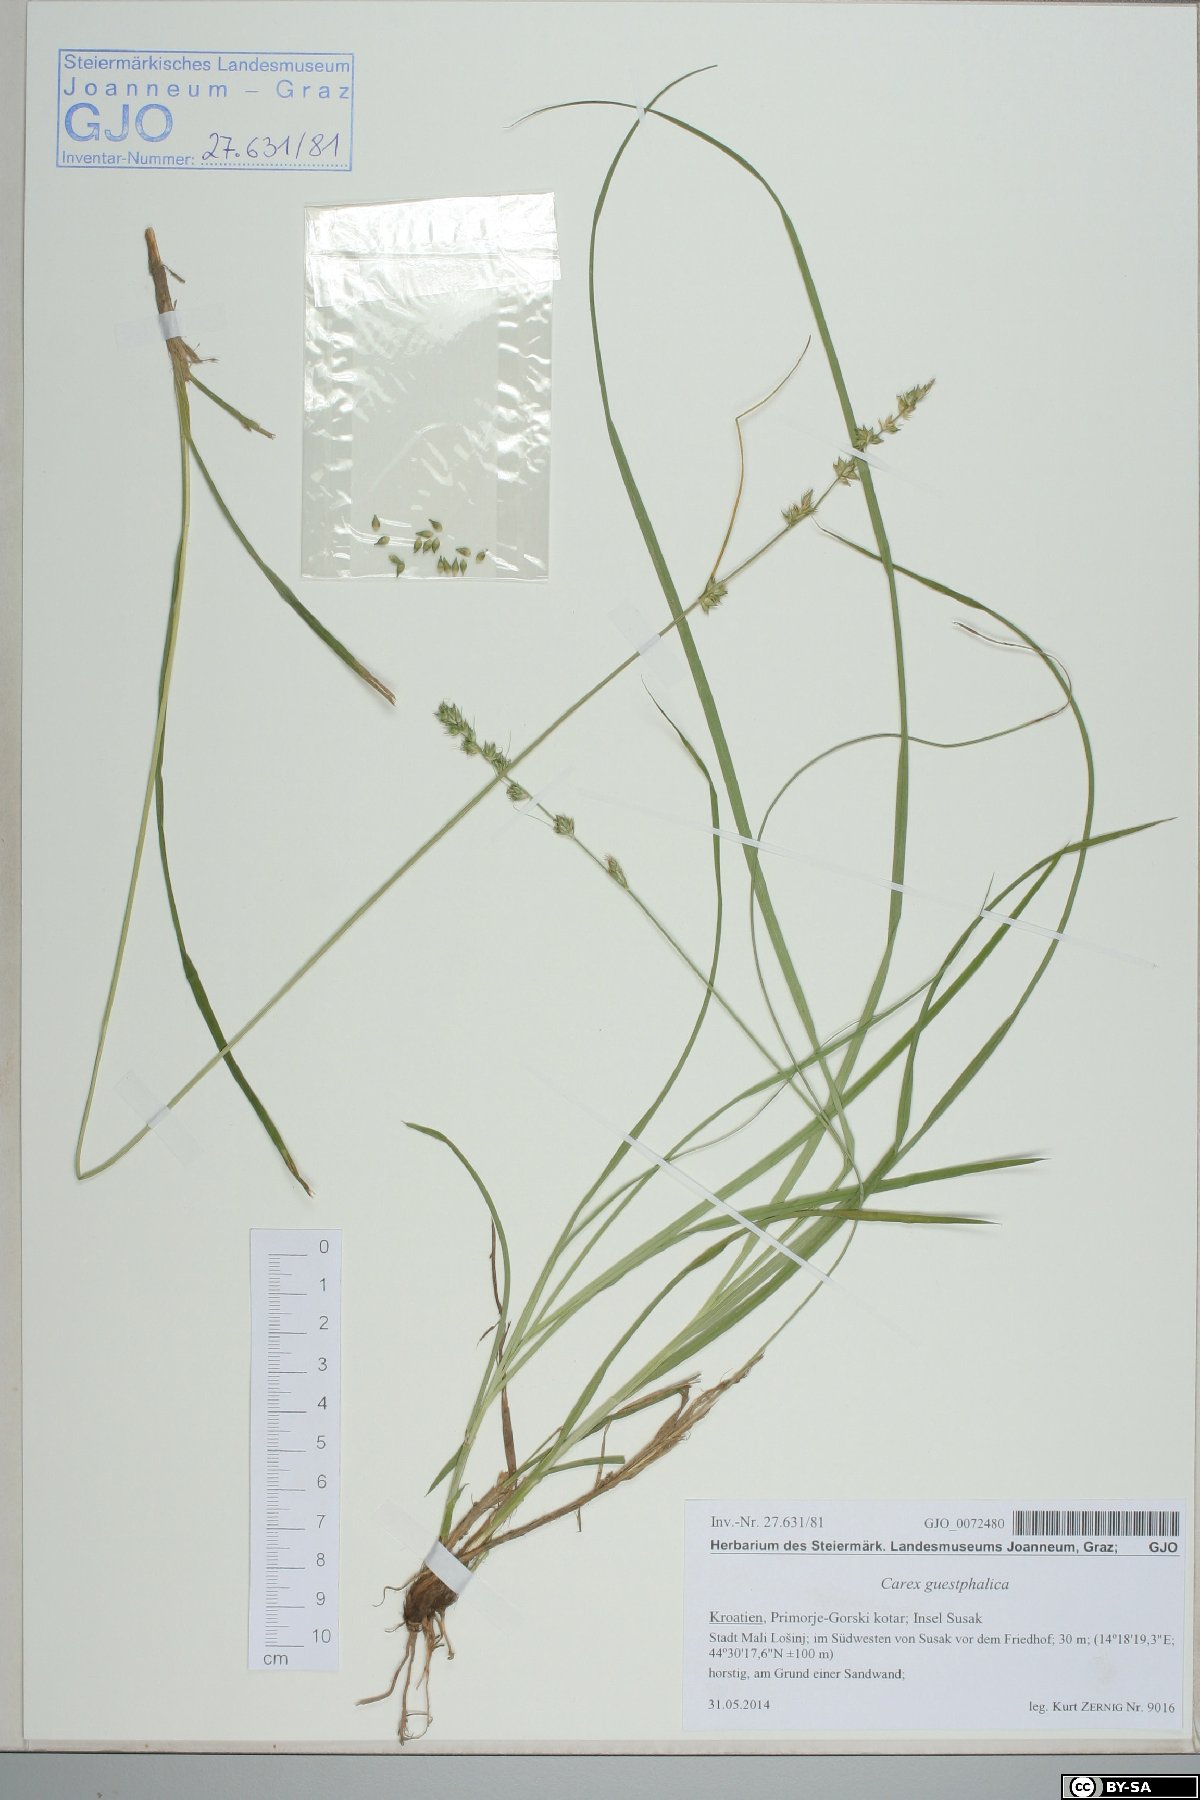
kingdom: Plantae
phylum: Tracheophyta
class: Liliopsida
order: Poales
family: Cyperaceae
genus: Carex
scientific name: Carex divulsa
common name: Grassland sedge
